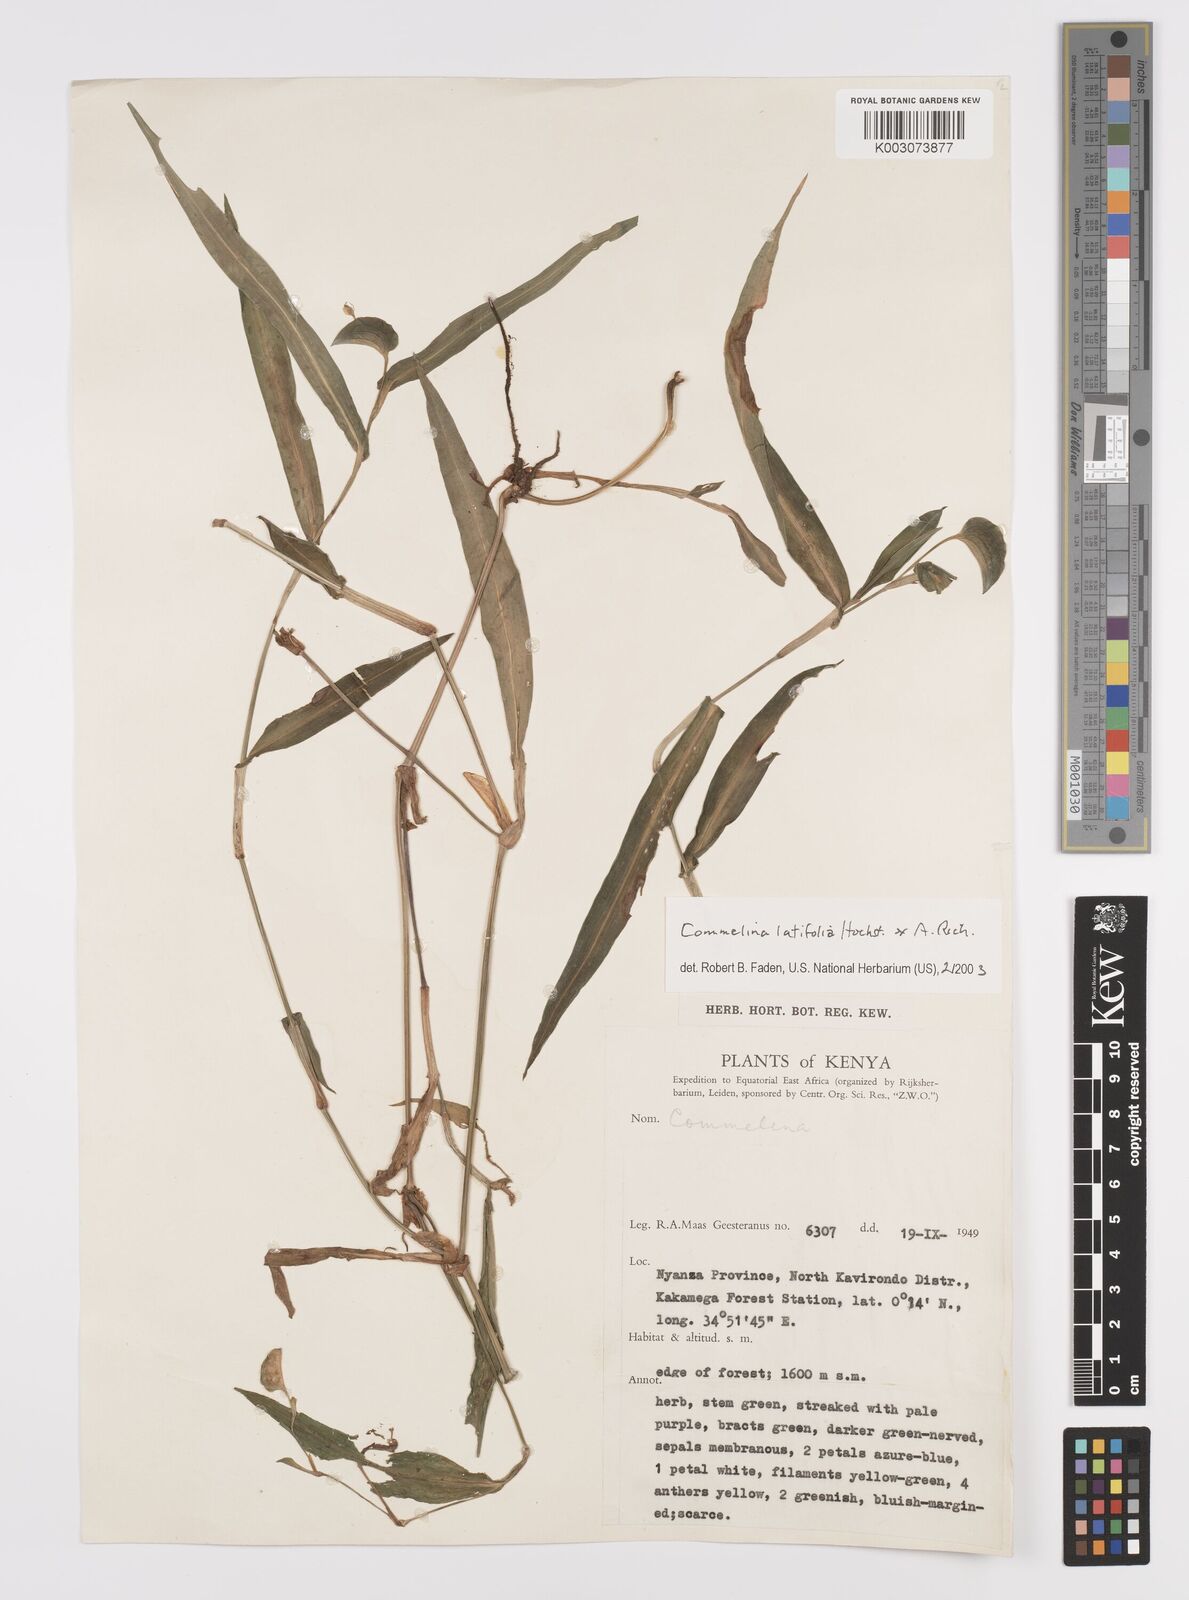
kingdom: Plantae
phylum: Tracheophyta
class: Liliopsida
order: Commelinales
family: Commelinaceae
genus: Commelina
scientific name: Commelina latifolia
